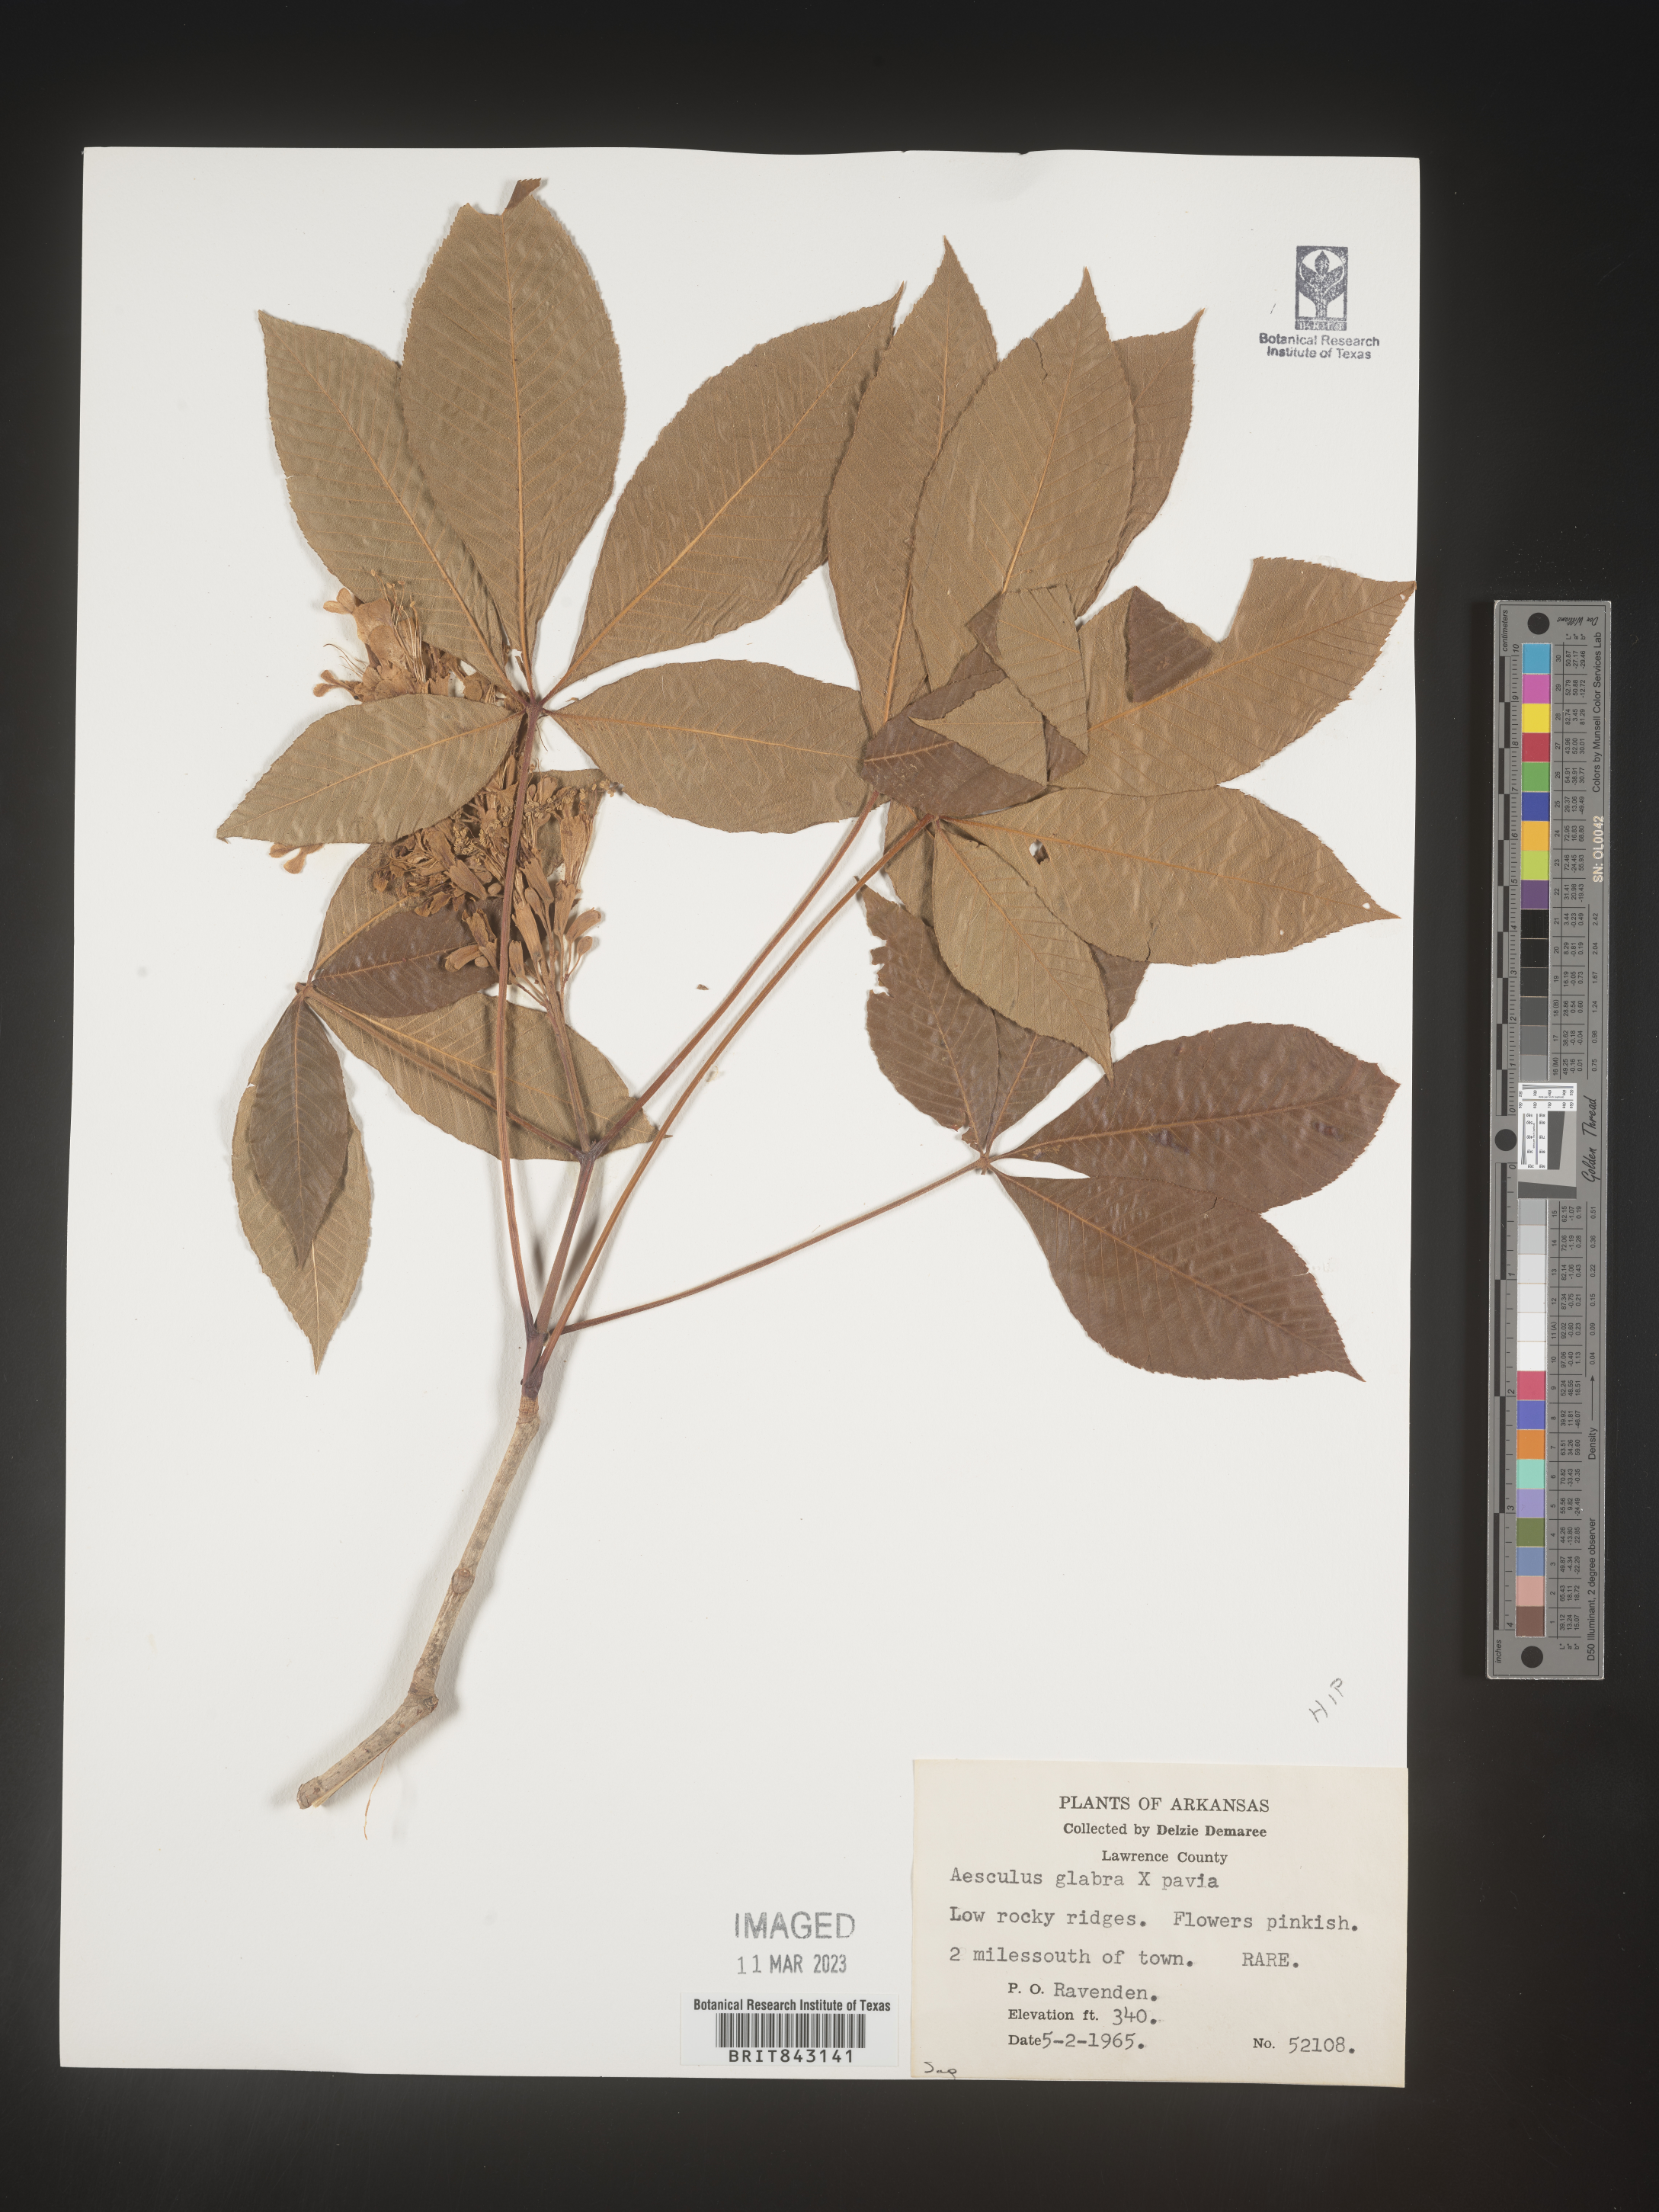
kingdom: Plantae
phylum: Tracheophyta
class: Magnoliopsida
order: Sapindales
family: Sapindaceae
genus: Aesculus
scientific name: Aesculus glabra
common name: Ohio buckeye
